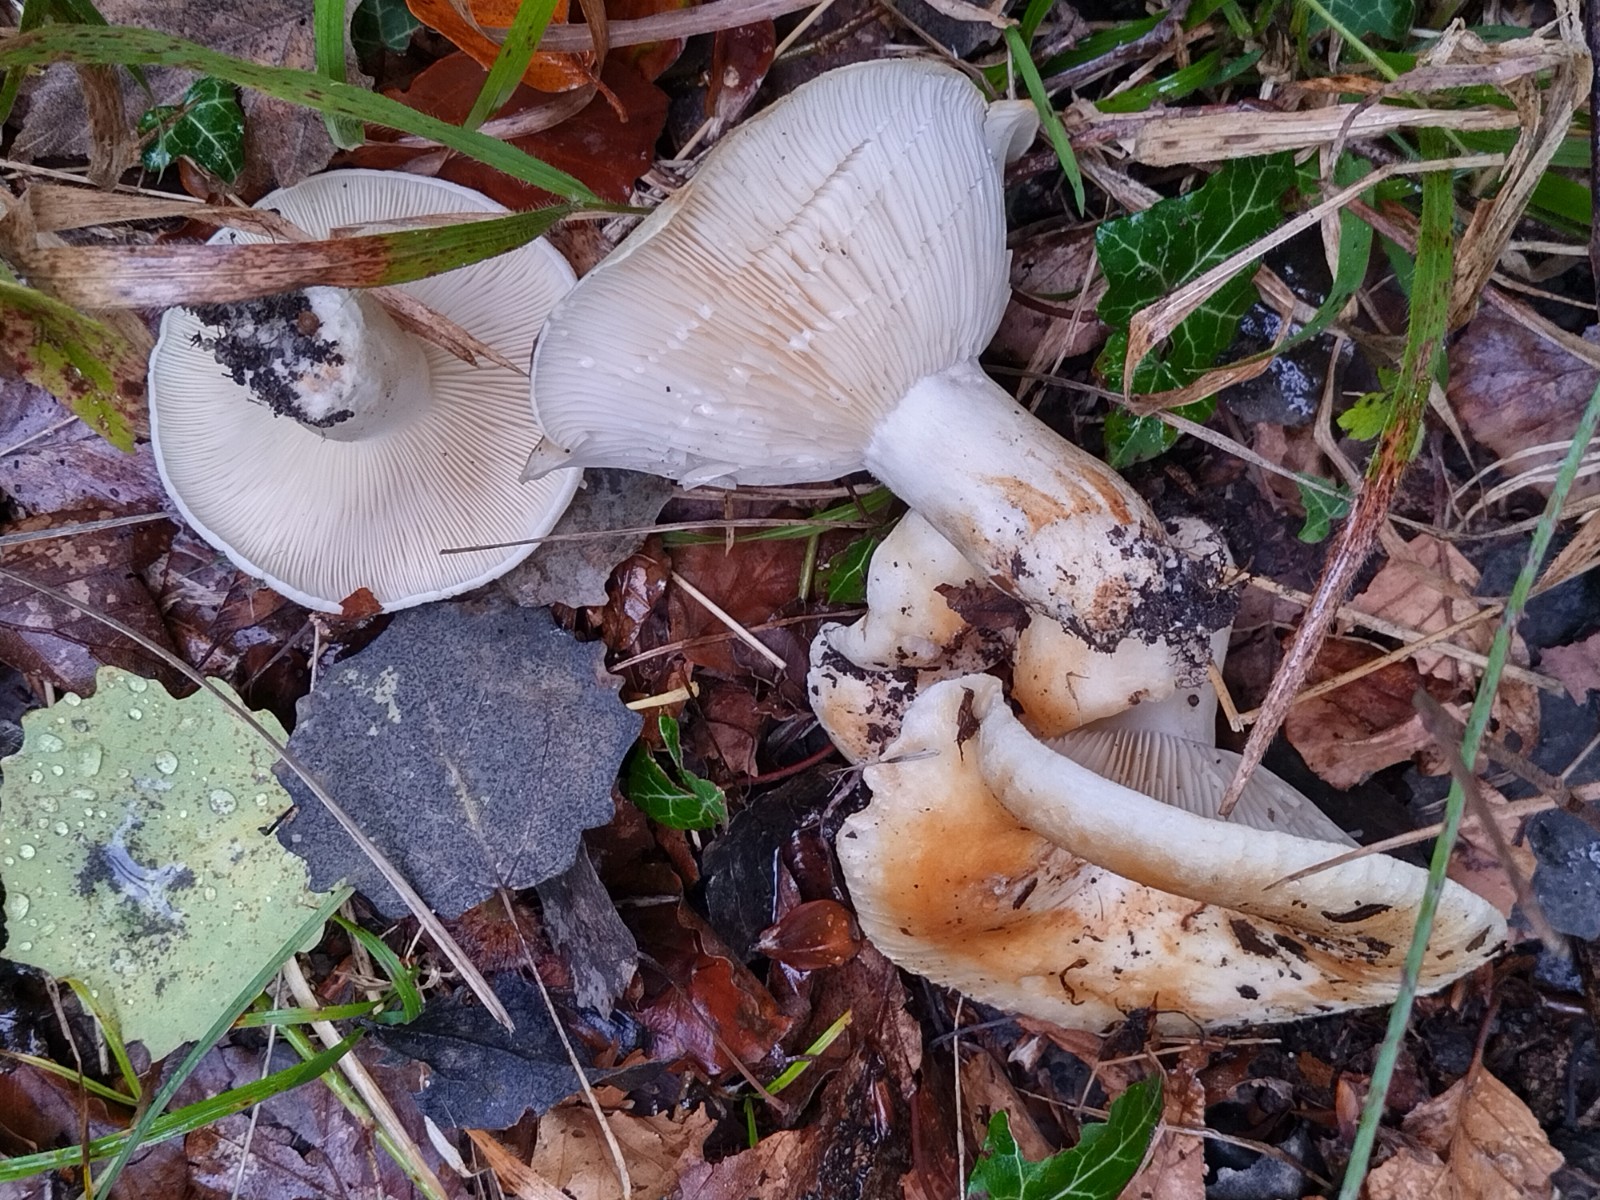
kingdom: Fungi
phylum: Basidiomycota
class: Agaricomycetes
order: Russulales
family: Russulaceae
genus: Lactarius
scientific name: Lactarius evosmus
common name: bæltet mælkehat
